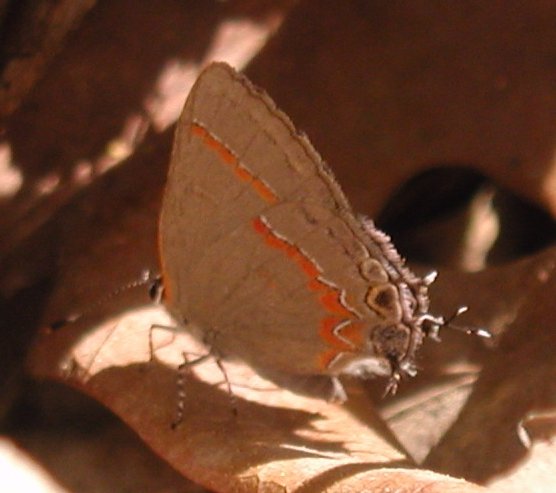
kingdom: Animalia
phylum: Arthropoda
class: Insecta
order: Lepidoptera
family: Lycaenidae
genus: Calycopis
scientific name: Calycopis cecrops
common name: Red-banded Hairstreak
